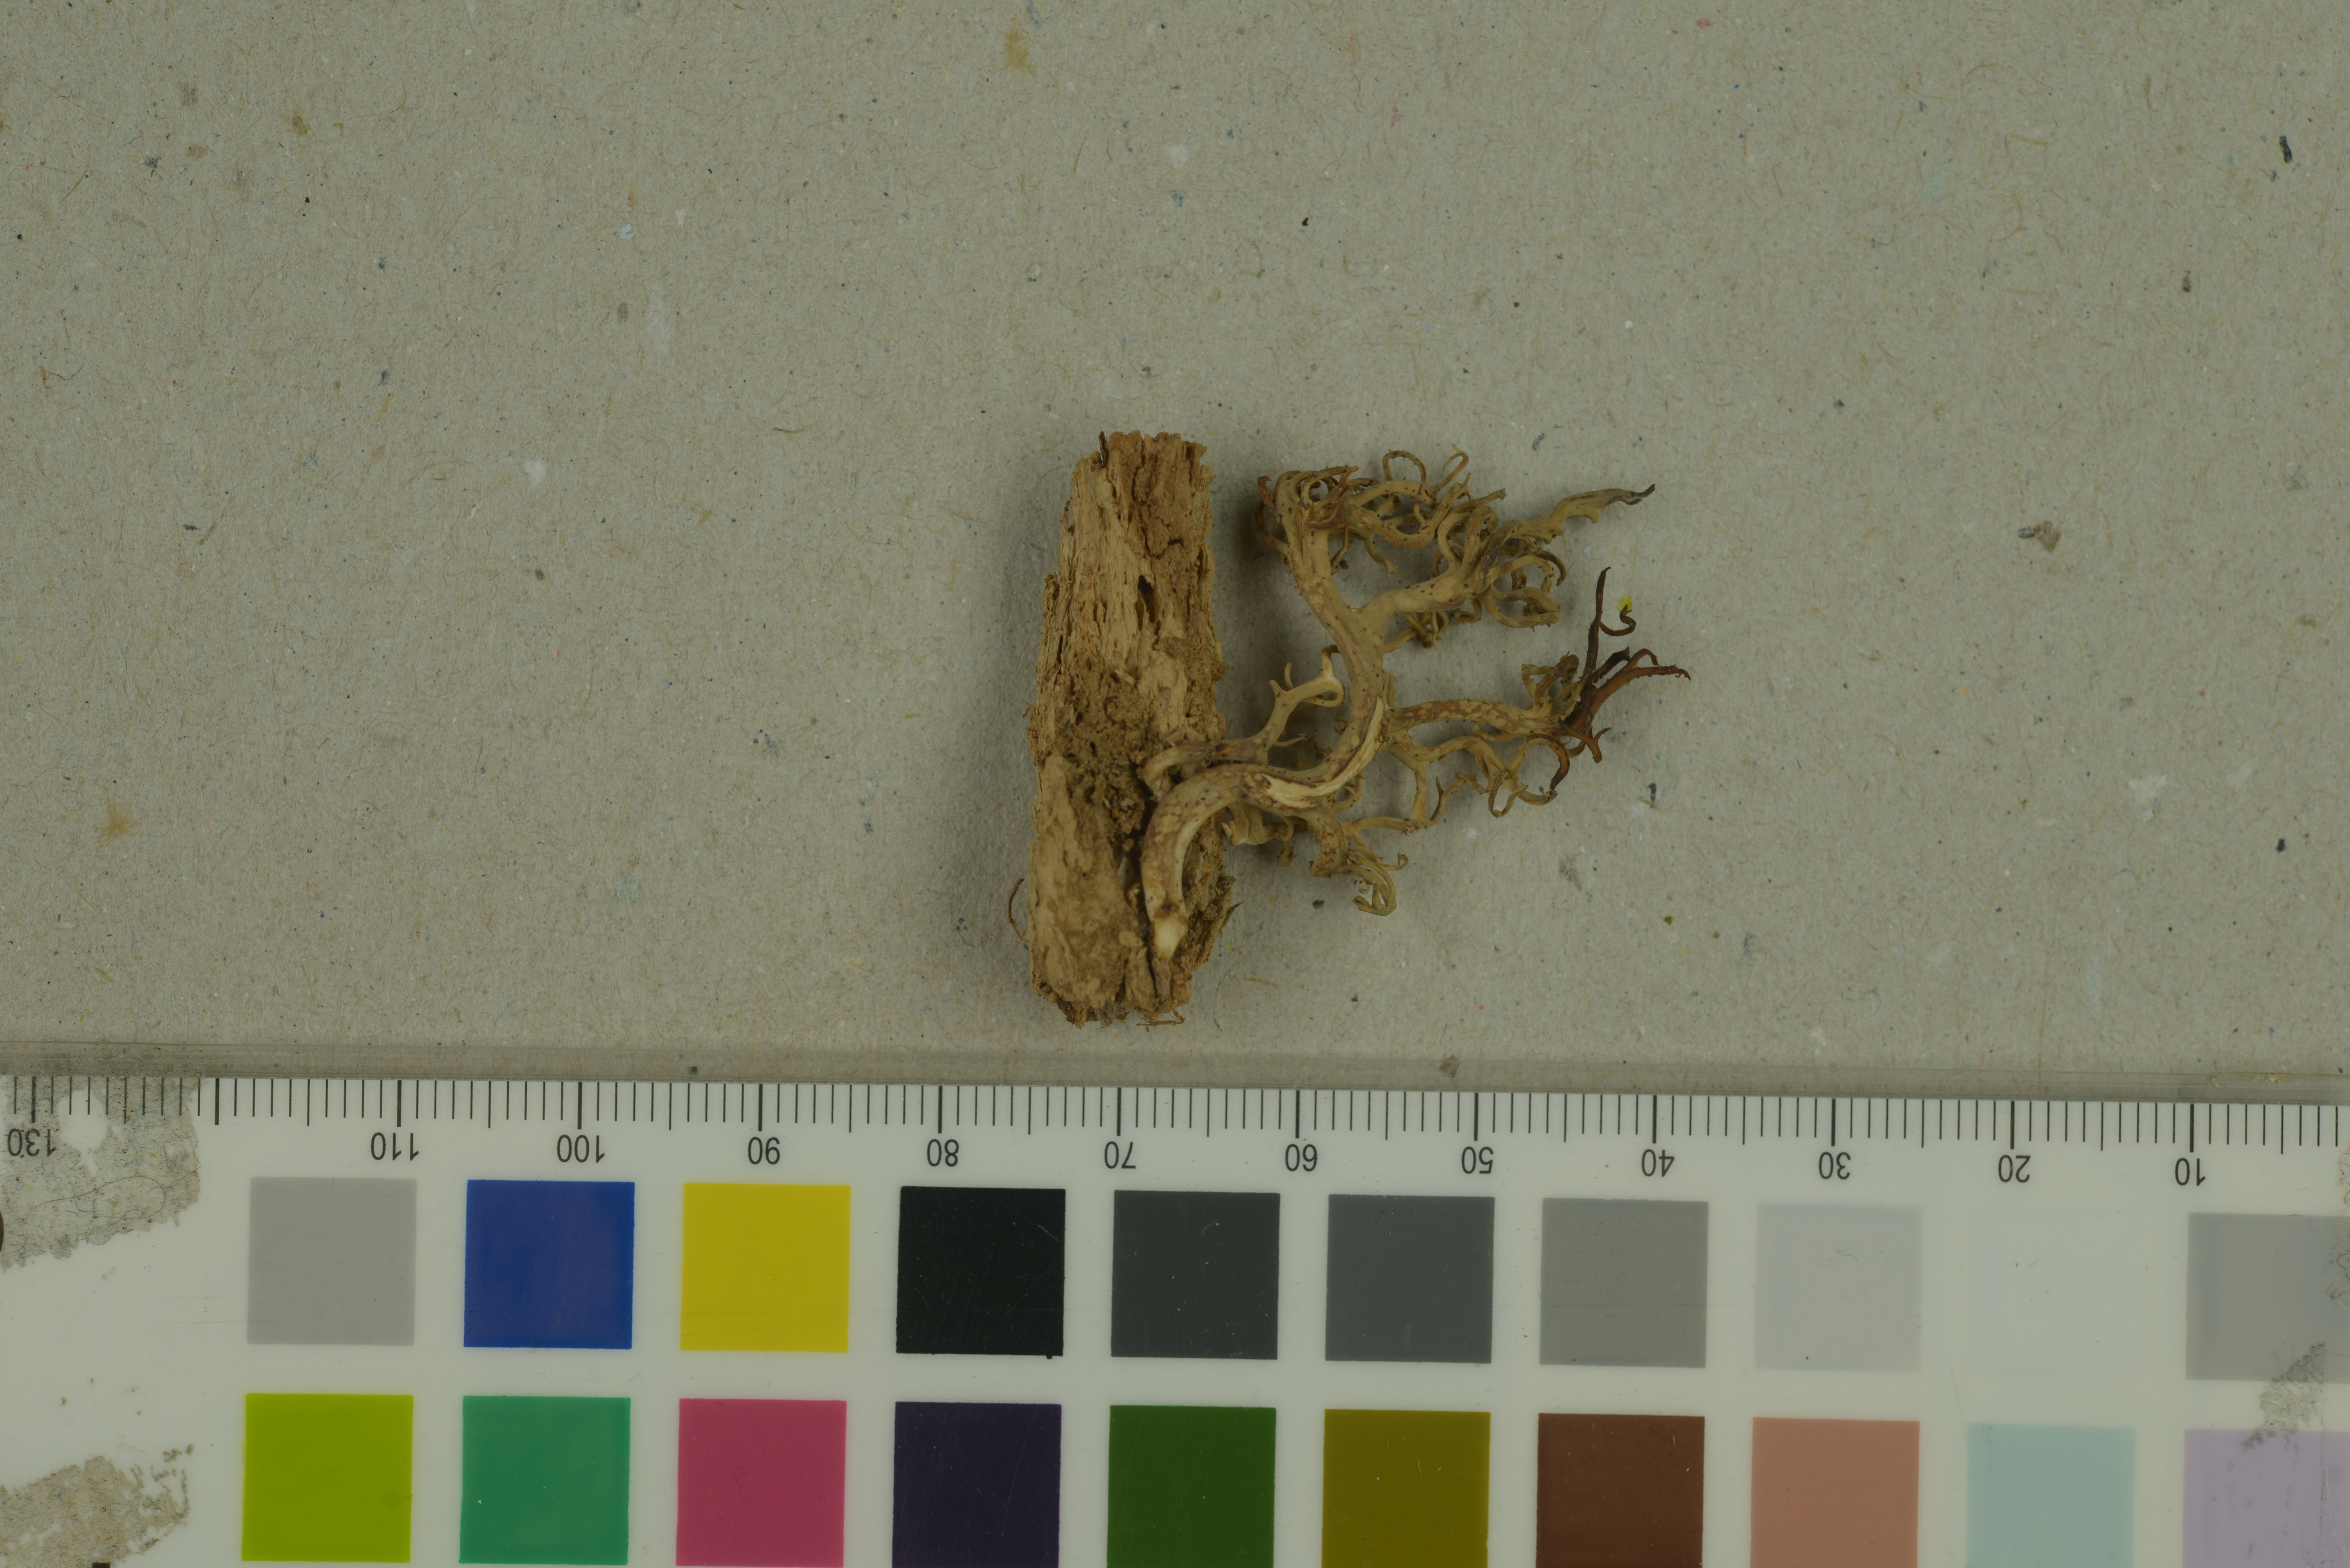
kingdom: Fungi
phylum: Basidiomycota
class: Agaricomycetes
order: Gomphales
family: Lentariaceae
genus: Lentaria
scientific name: Lentaria byssiseda
